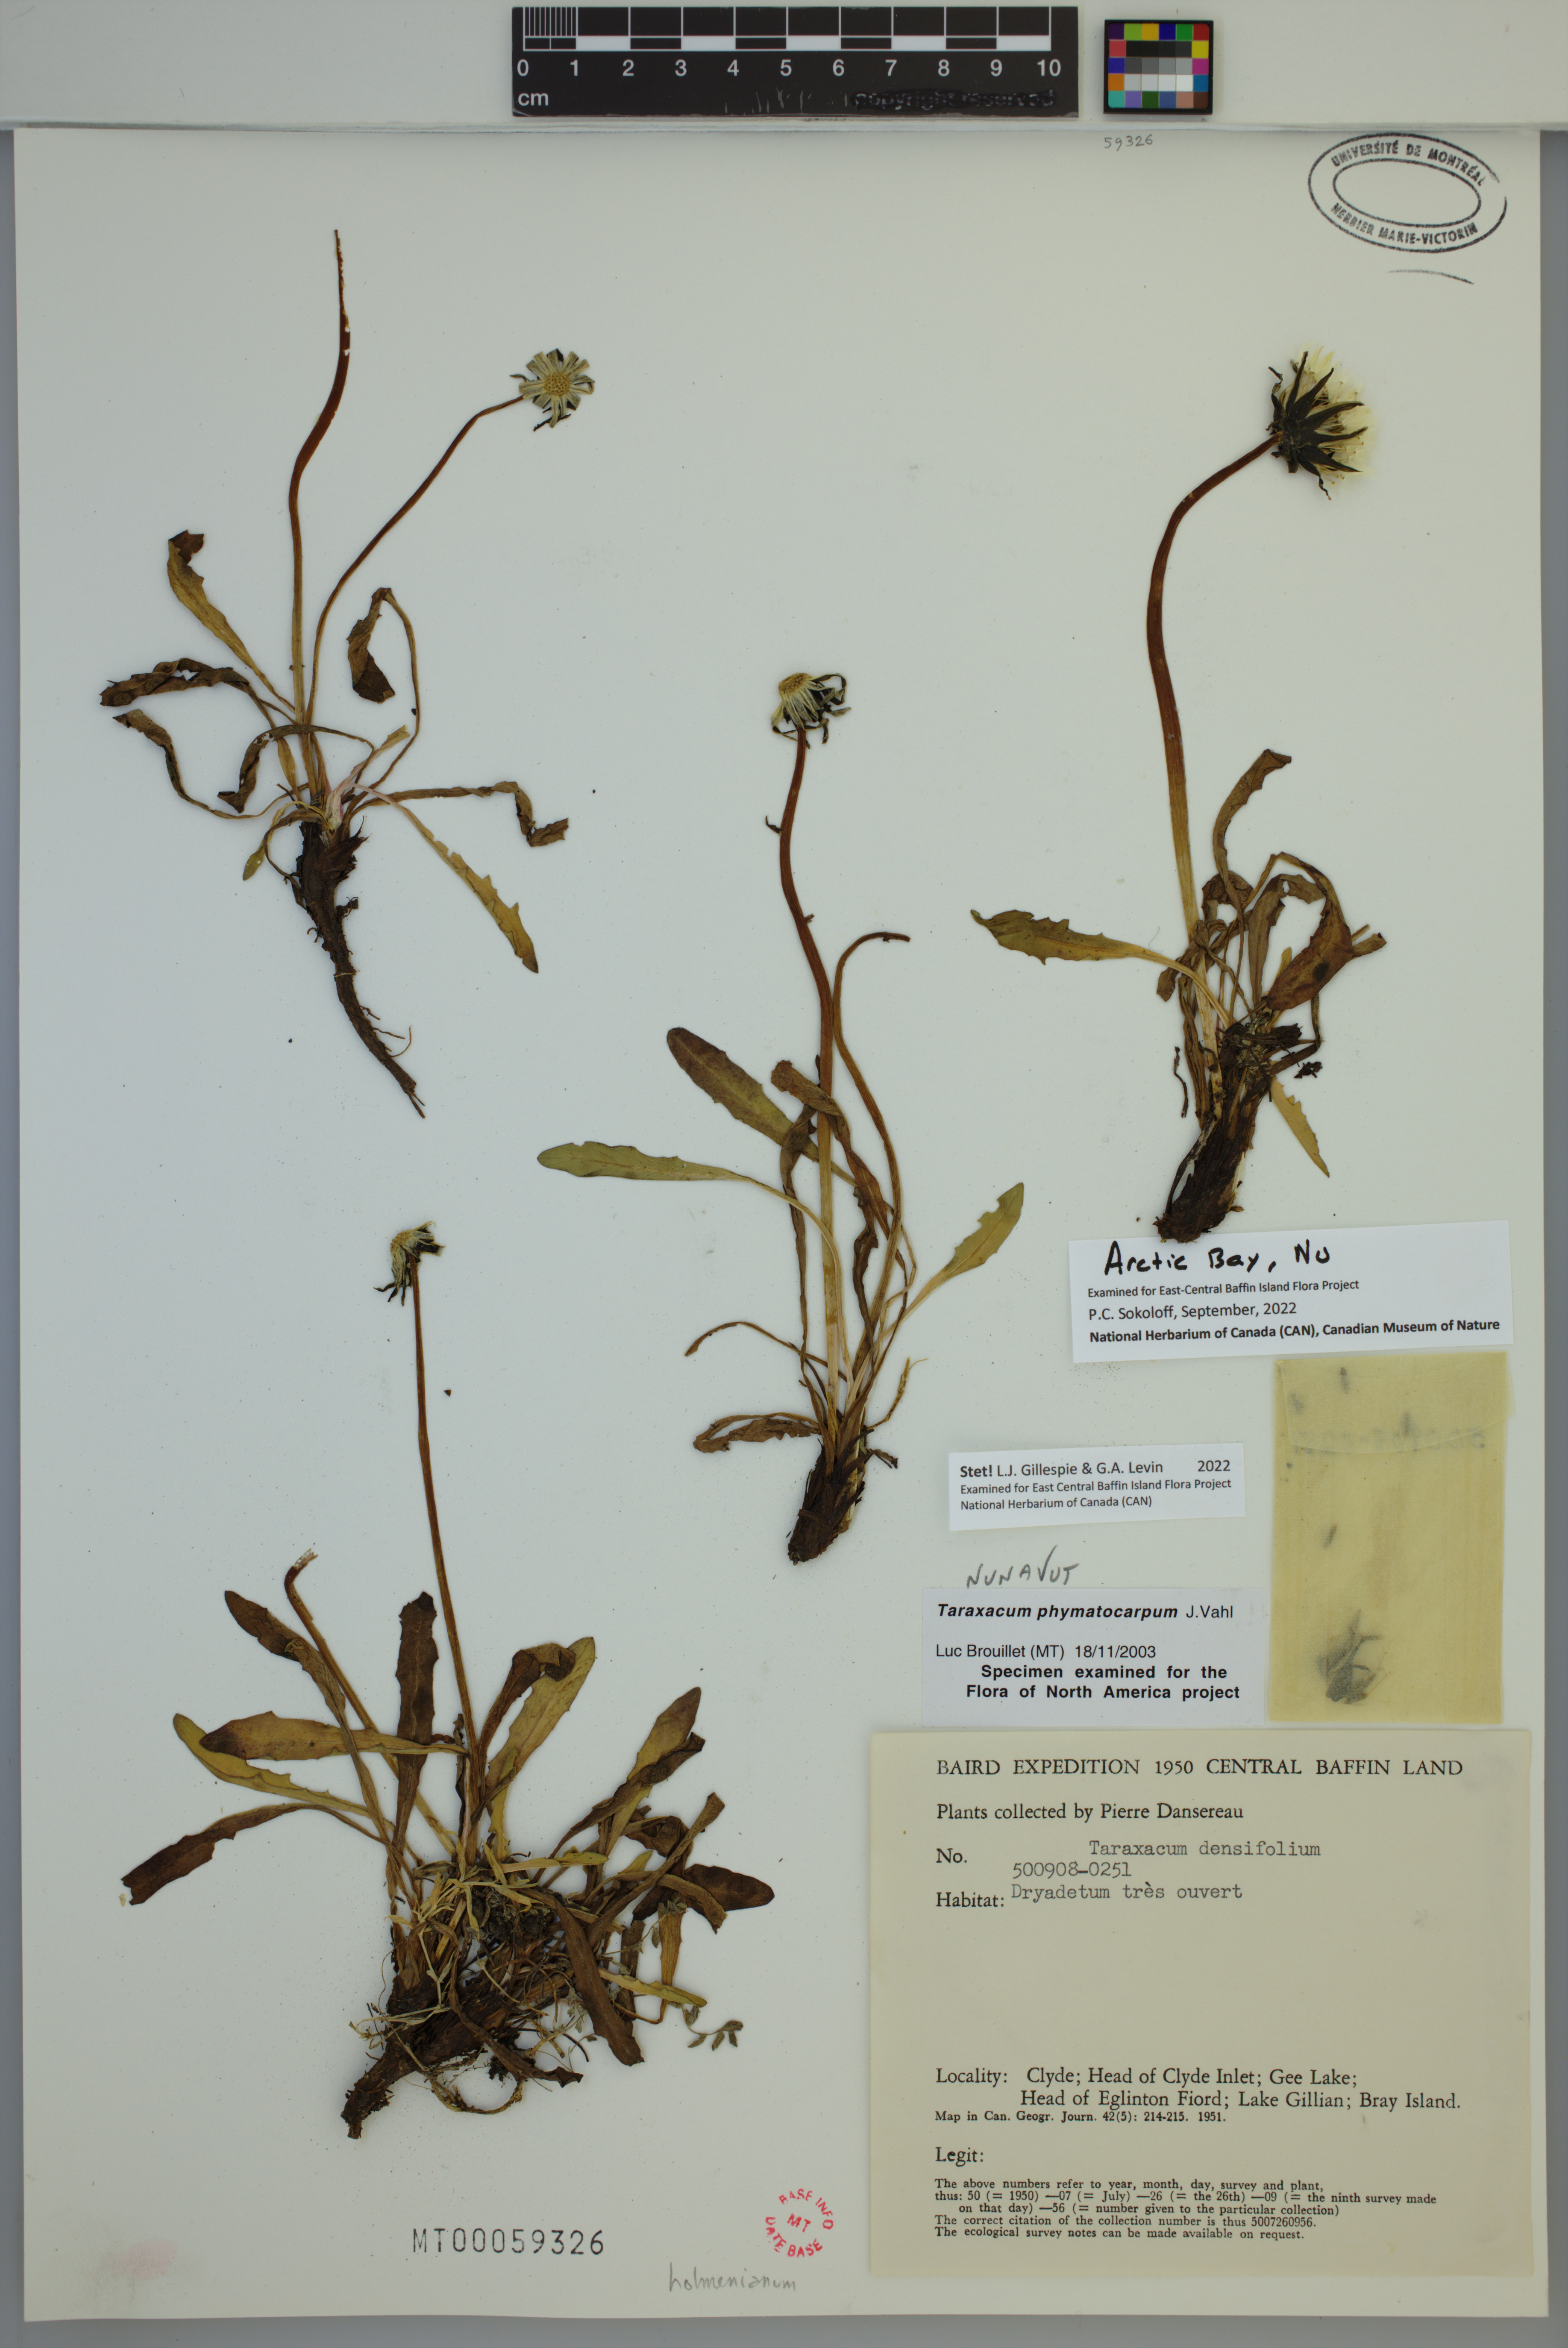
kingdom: Plantae
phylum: Tracheophyta
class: Magnoliopsida
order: Asterales
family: Asteraceae
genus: Taraxacum
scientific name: Taraxacum phymatocarpum
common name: Harp dandelion
